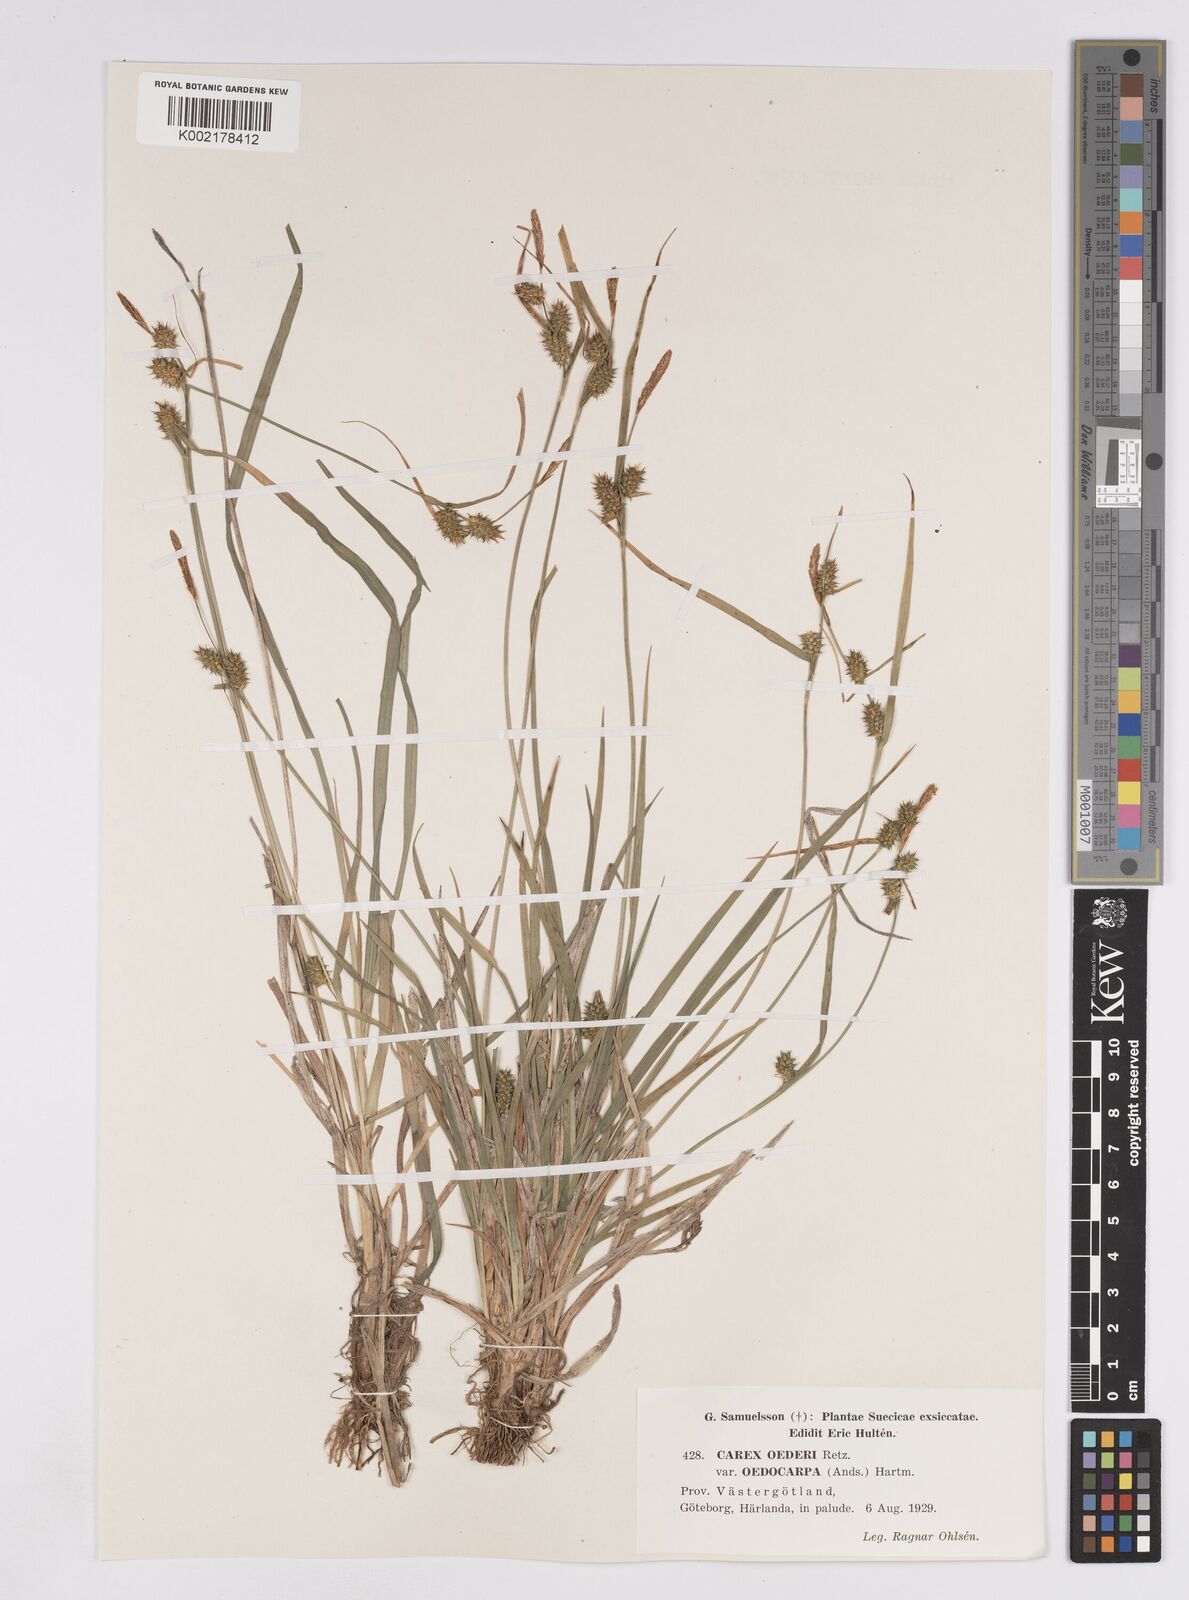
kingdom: Plantae
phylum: Tracheophyta
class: Liliopsida
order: Poales
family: Cyperaceae
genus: Carex
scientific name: Carex demissa
